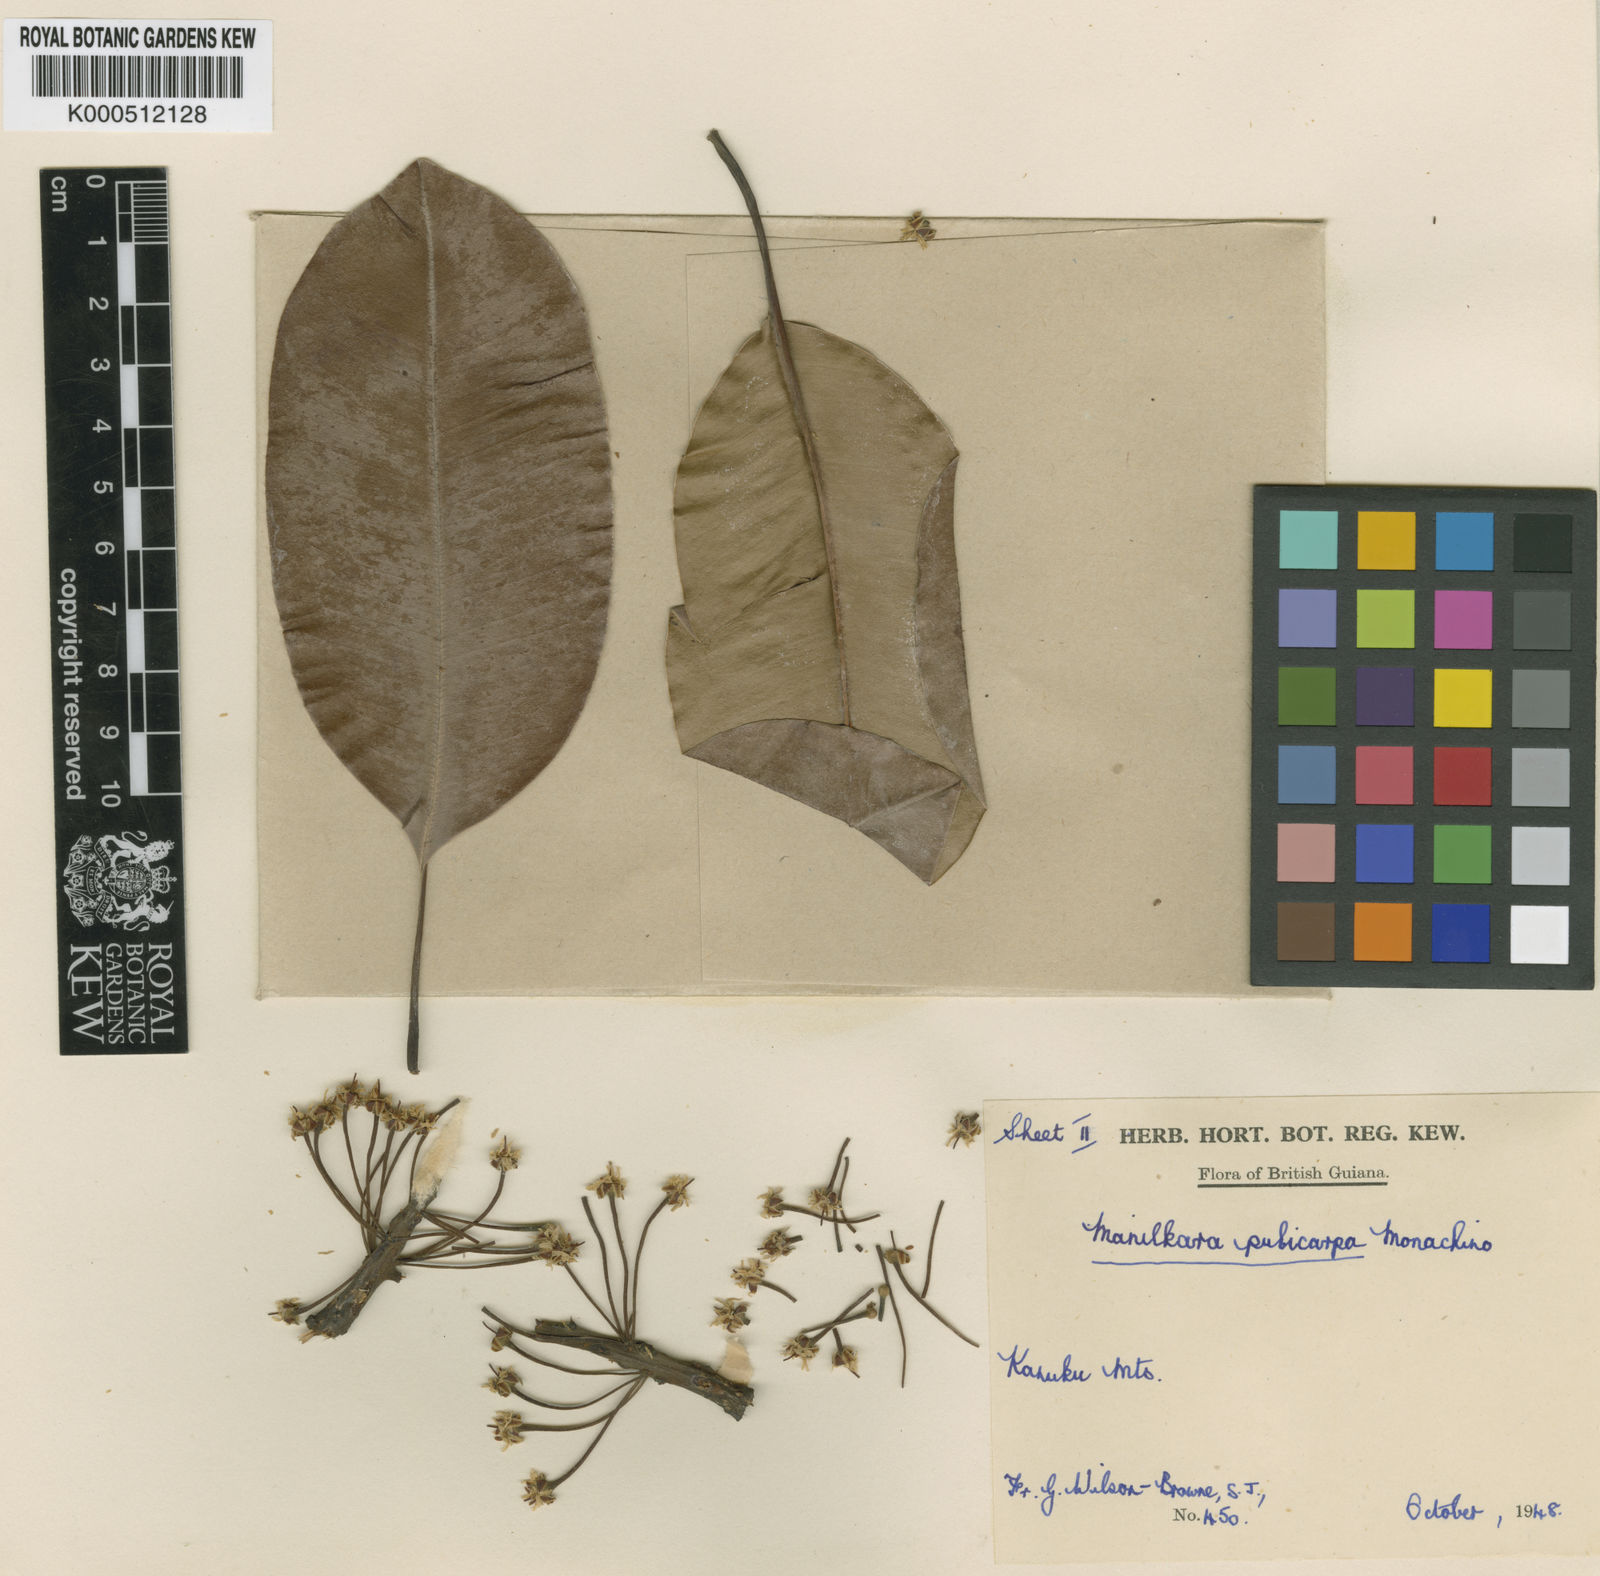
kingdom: Plantae
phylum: Tracheophyta
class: Magnoliopsida
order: Ericales
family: Sapotaceae
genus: Manilkara
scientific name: Manilkara pubicarpa
